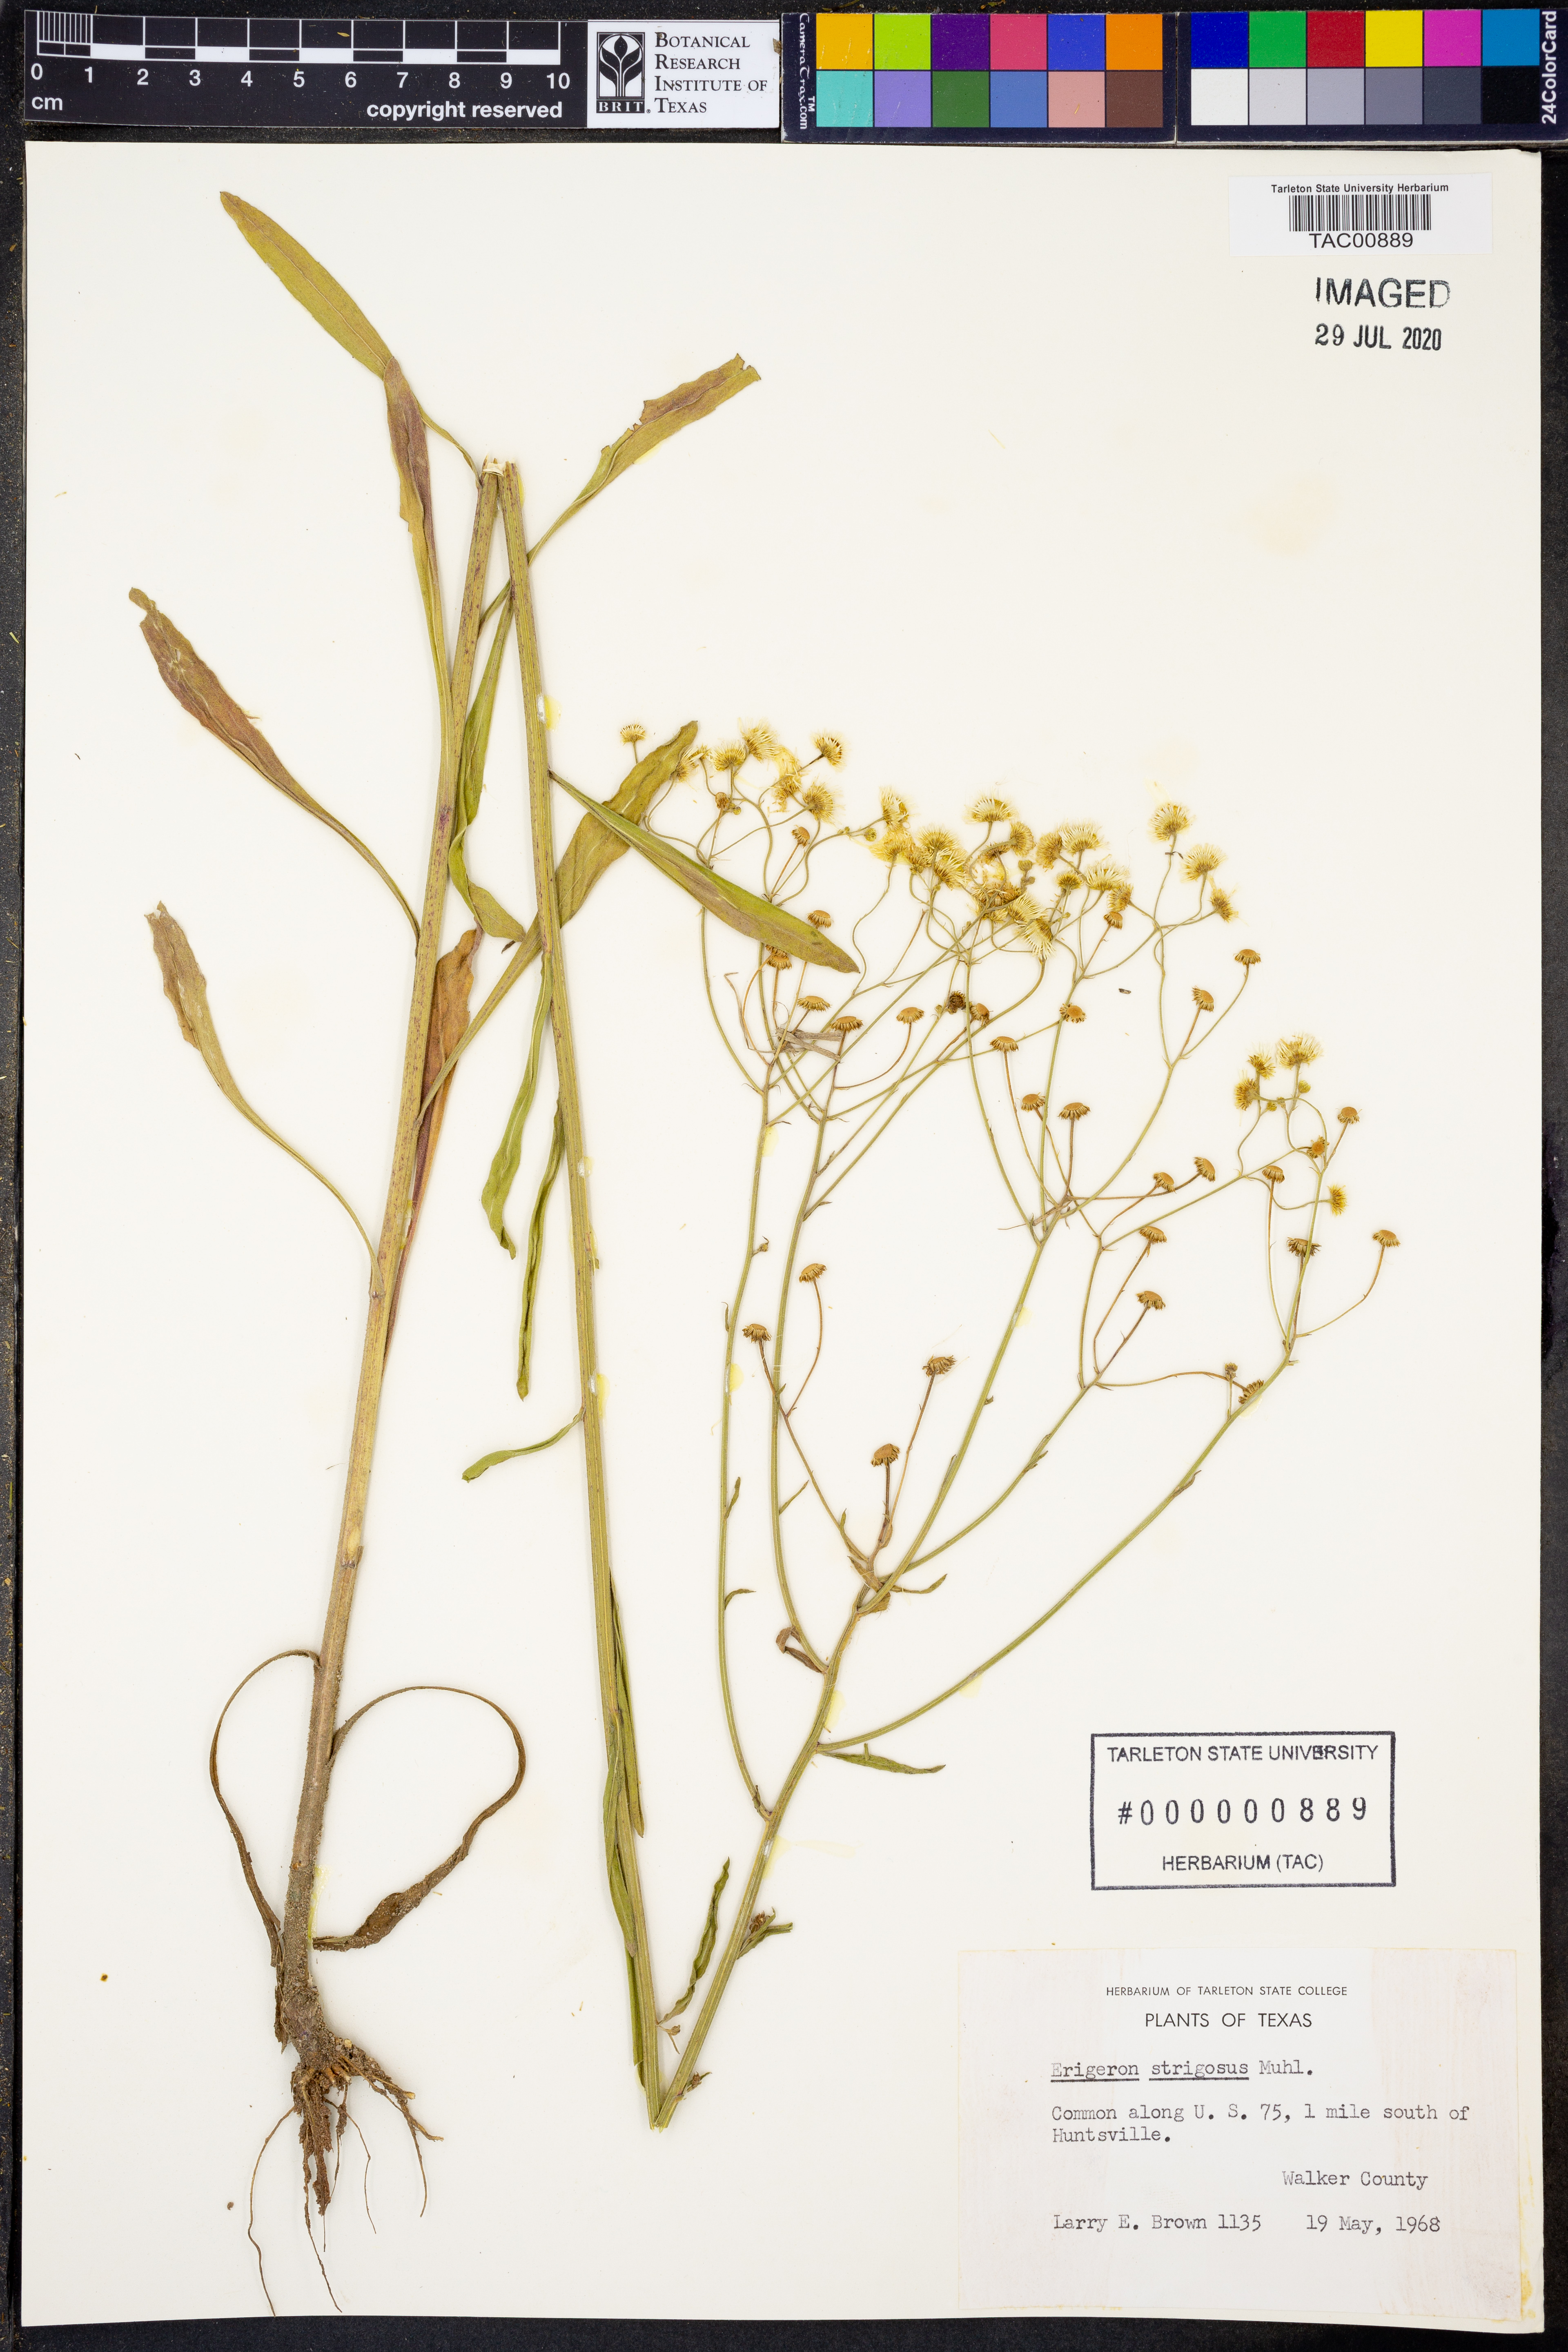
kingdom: Plantae
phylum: Tracheophyta
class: Magnoliopsida
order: Asterales
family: Asteraceae
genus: Erigeron
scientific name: Erigeron strigosus
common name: Common eastern fleabane
